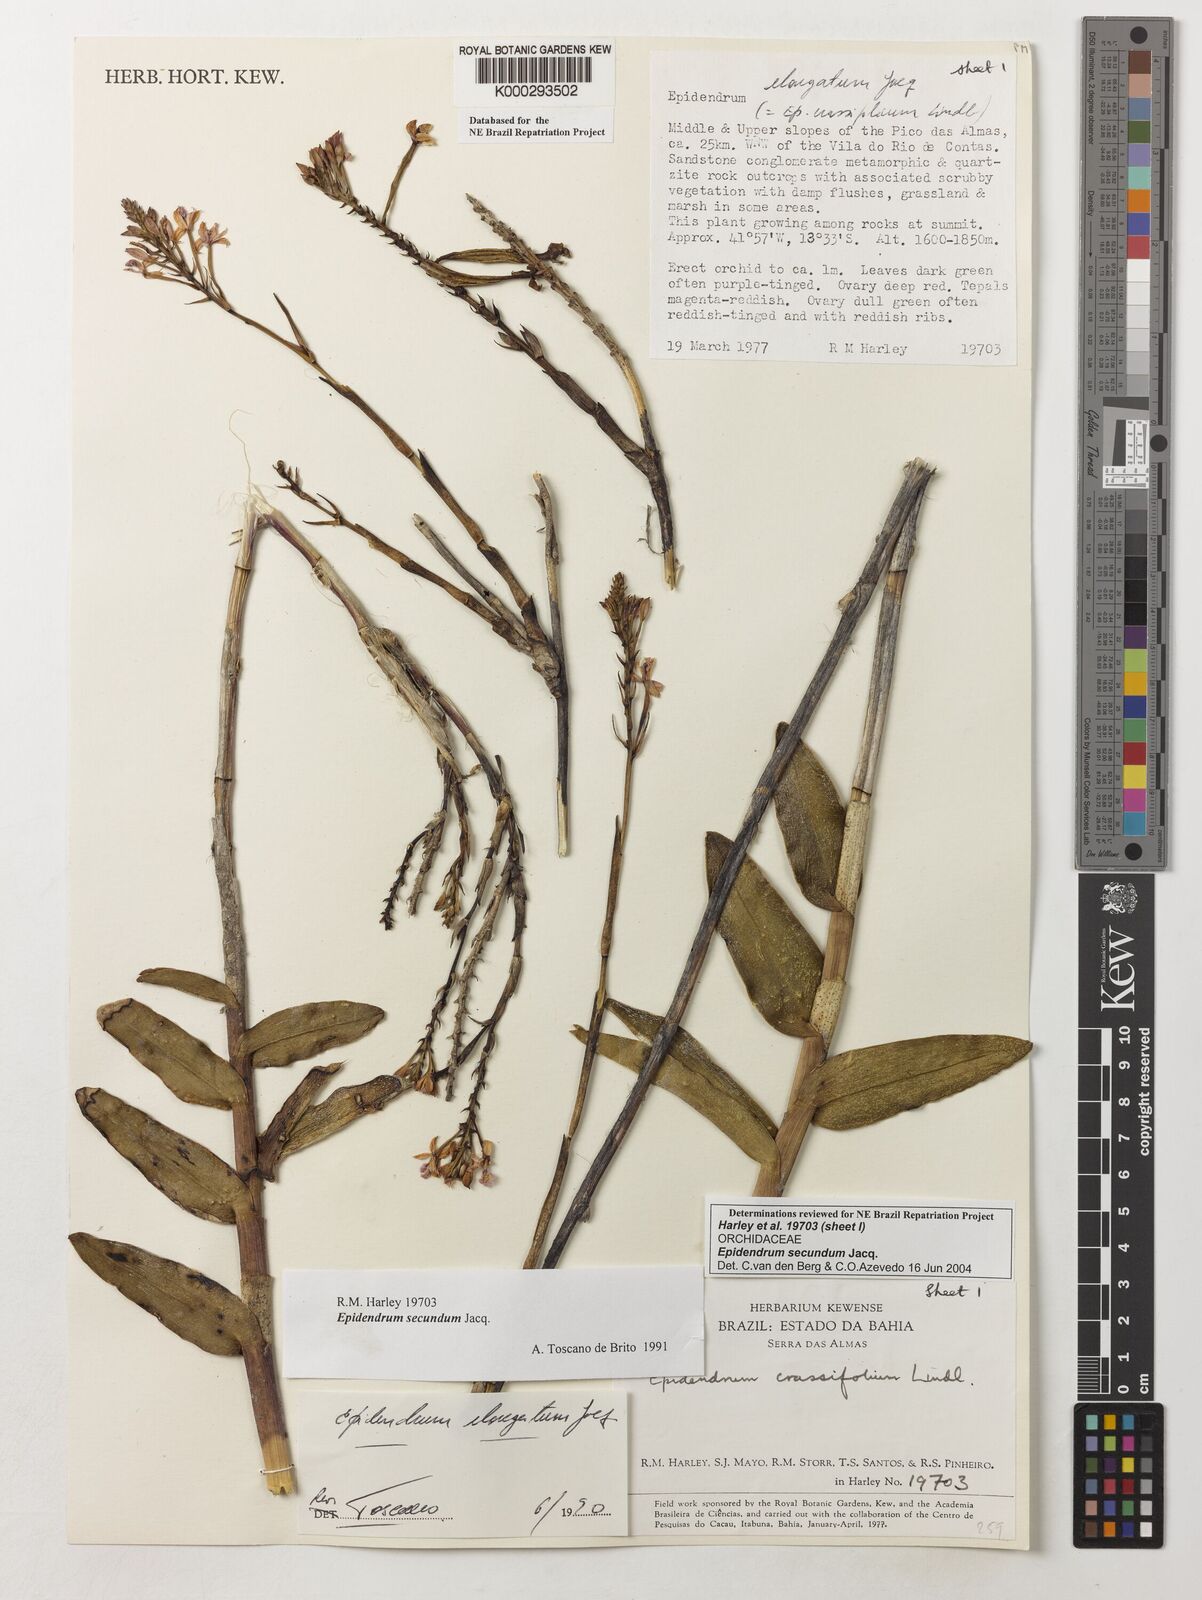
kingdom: Plantae
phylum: Tracheophyta
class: Liliopsida
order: Asparagales
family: Orchidaceae
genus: Epidendrum
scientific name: Epidendrum secundum
